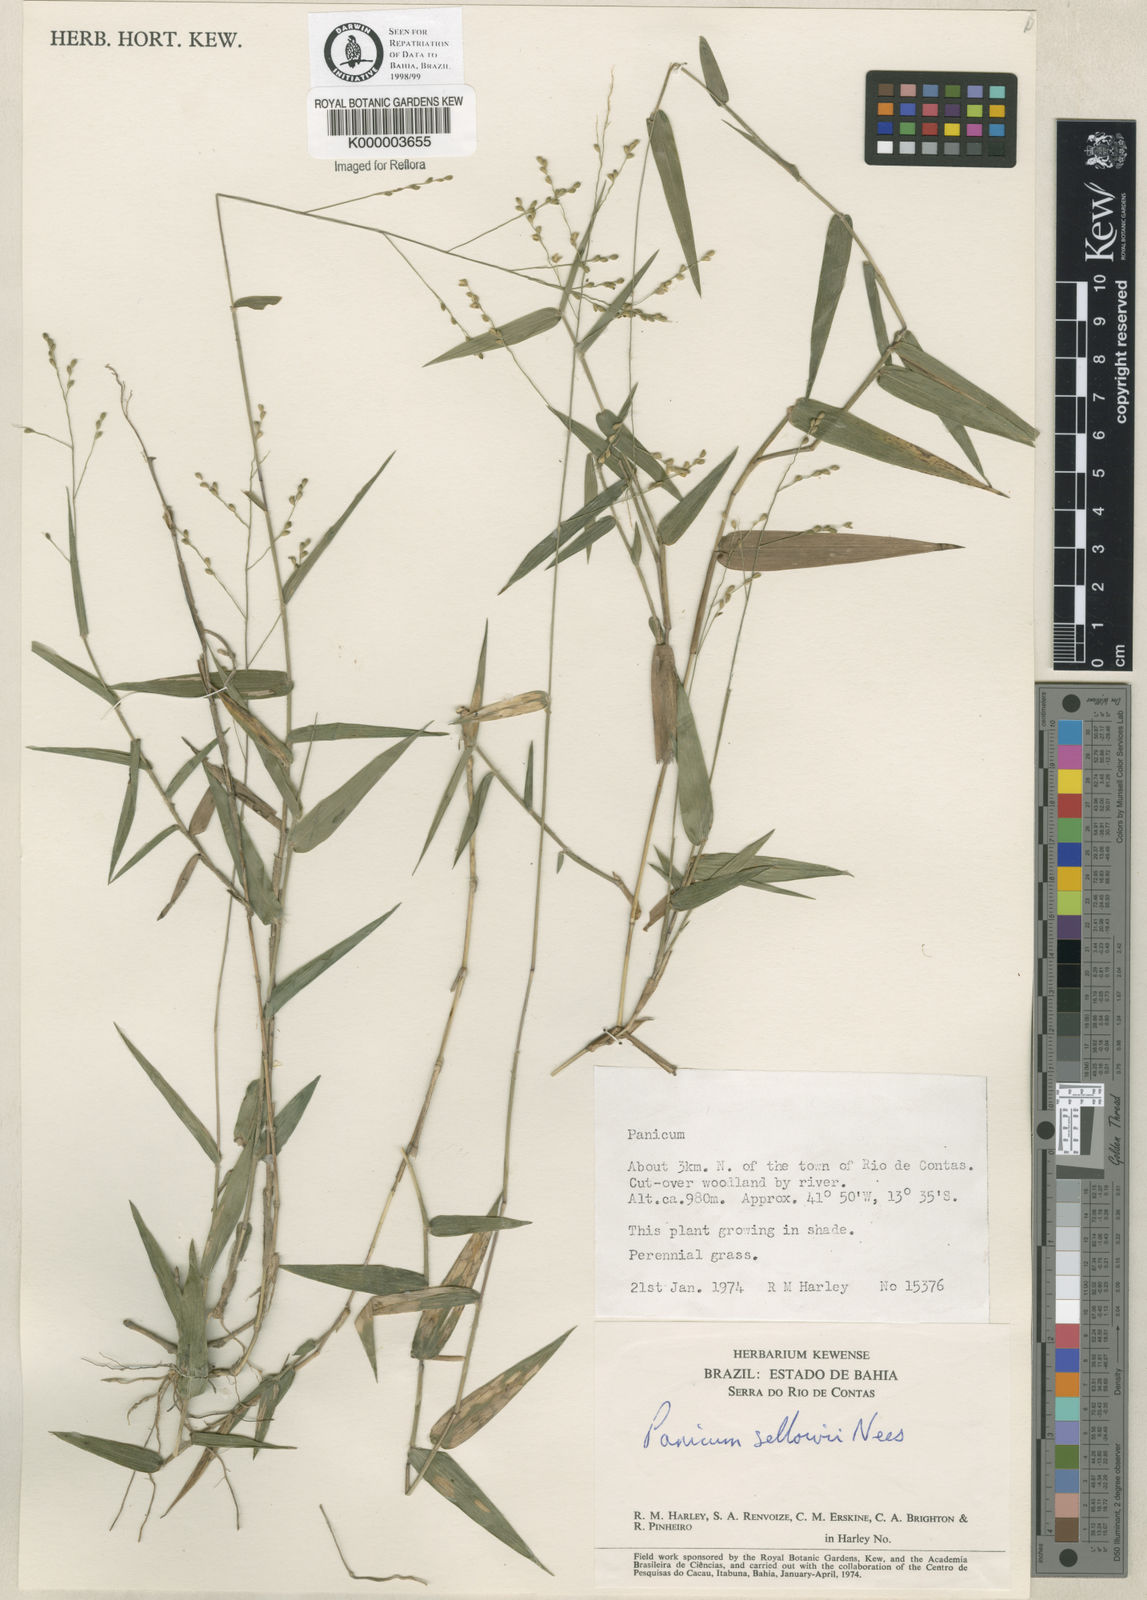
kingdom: Plantae
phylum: Tracheophyta
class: Liliopsida
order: Poales
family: Poaceae
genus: Panicum
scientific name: Panicum sellowii
